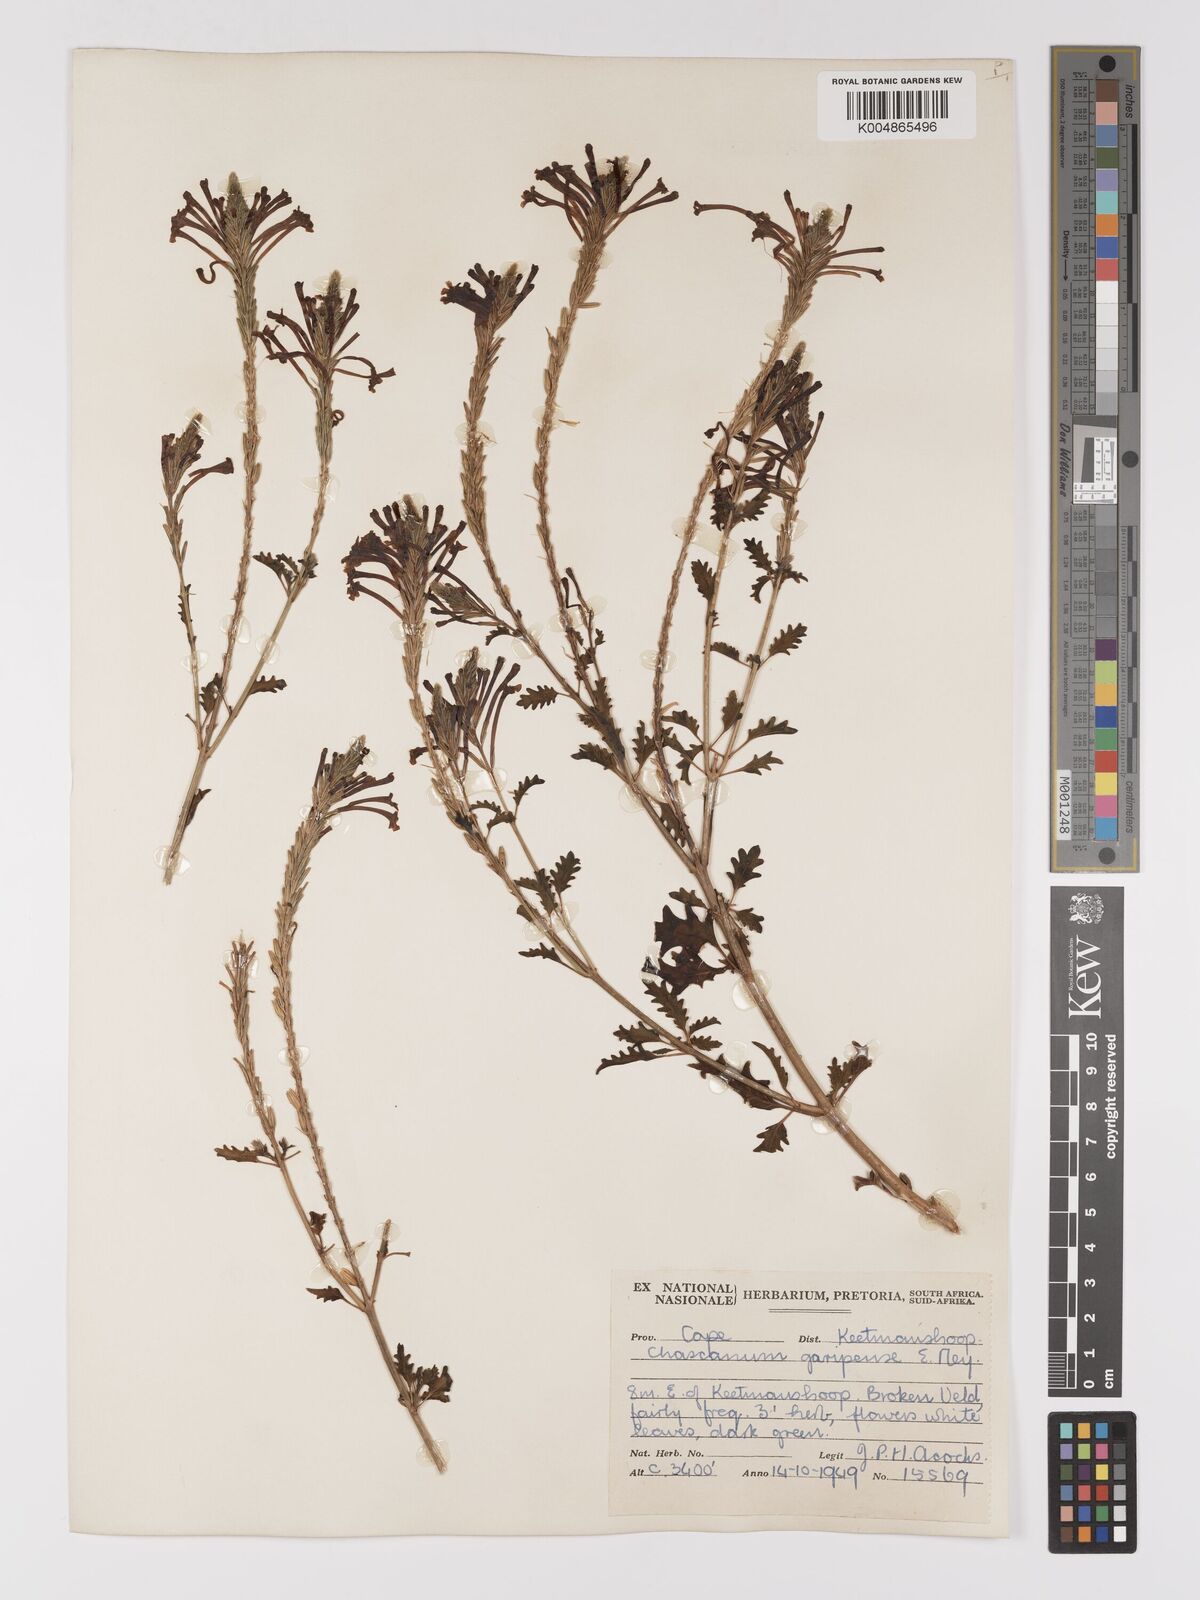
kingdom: Plantae
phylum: Tracheophyta
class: Magnoliopsida
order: Lamiales
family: Verbenaceae
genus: Chascanum
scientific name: Chascanum garipense
